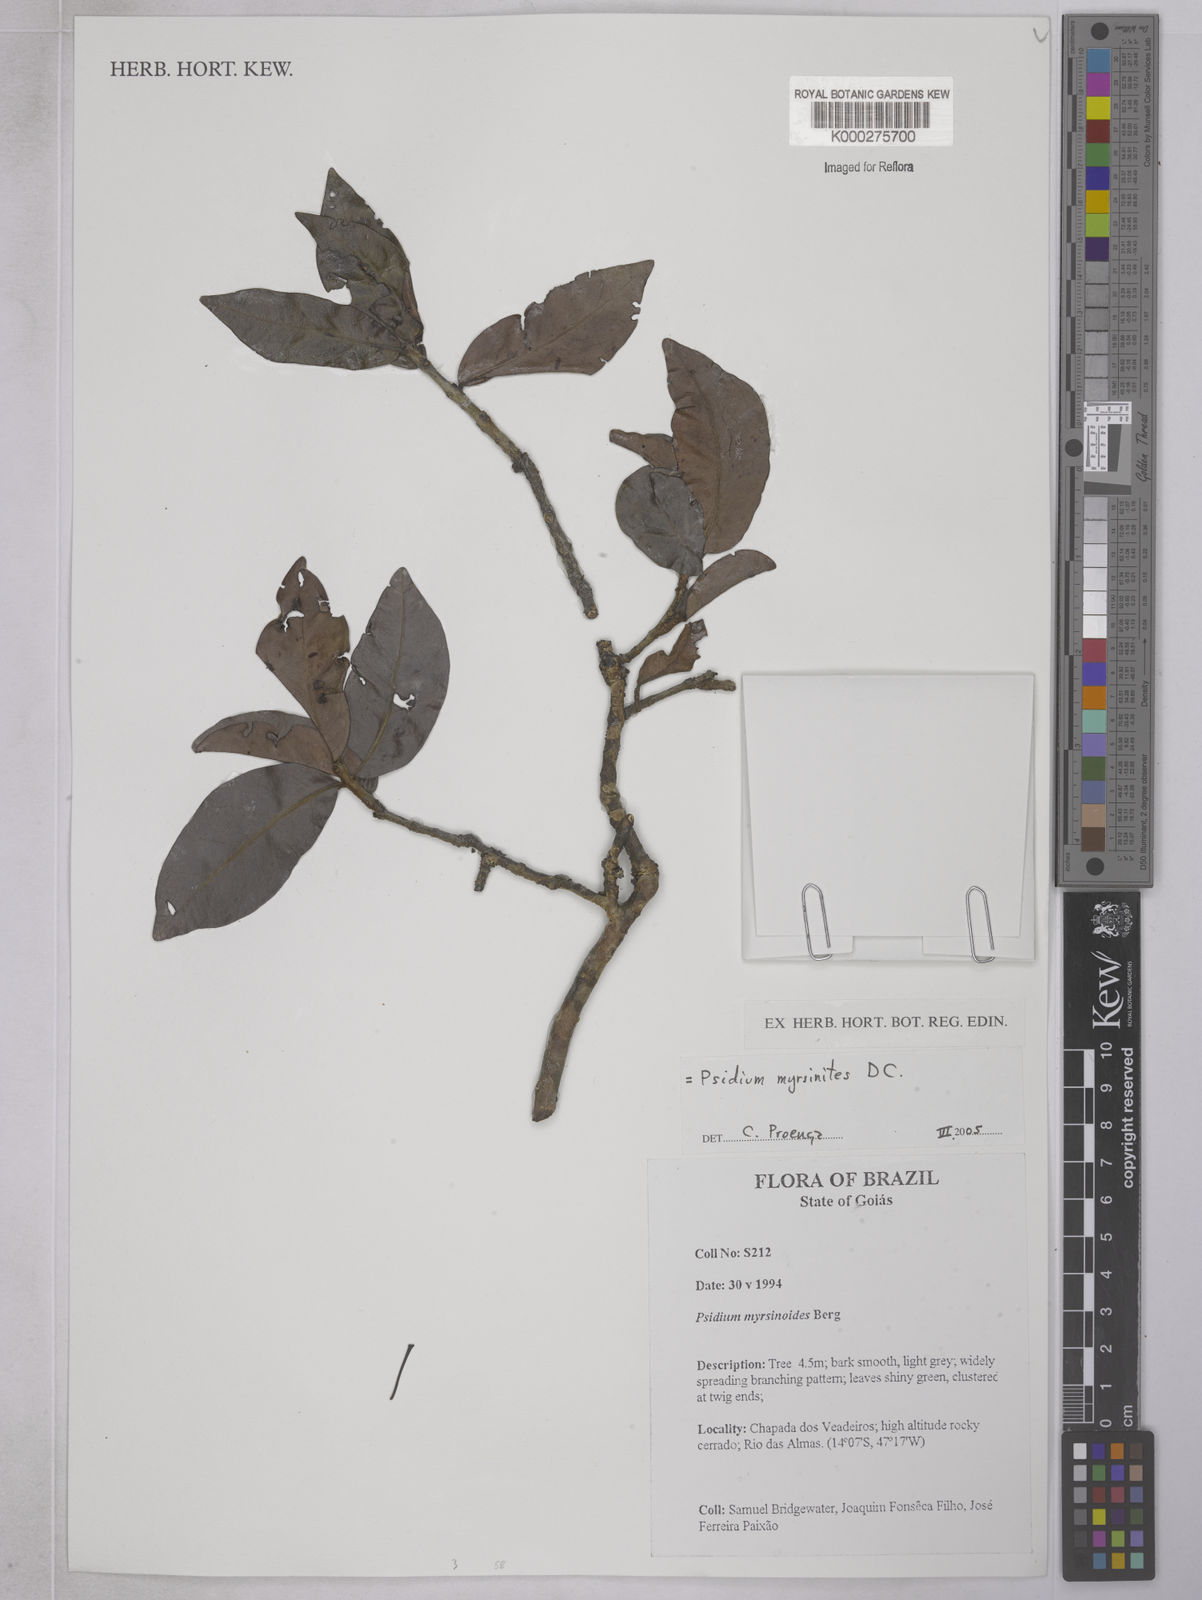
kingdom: Plantae
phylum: Tracheophyta
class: Magnoliopsida
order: Myrtales
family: Myrtaceae
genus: Psidium
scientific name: Psidium myrsinites
